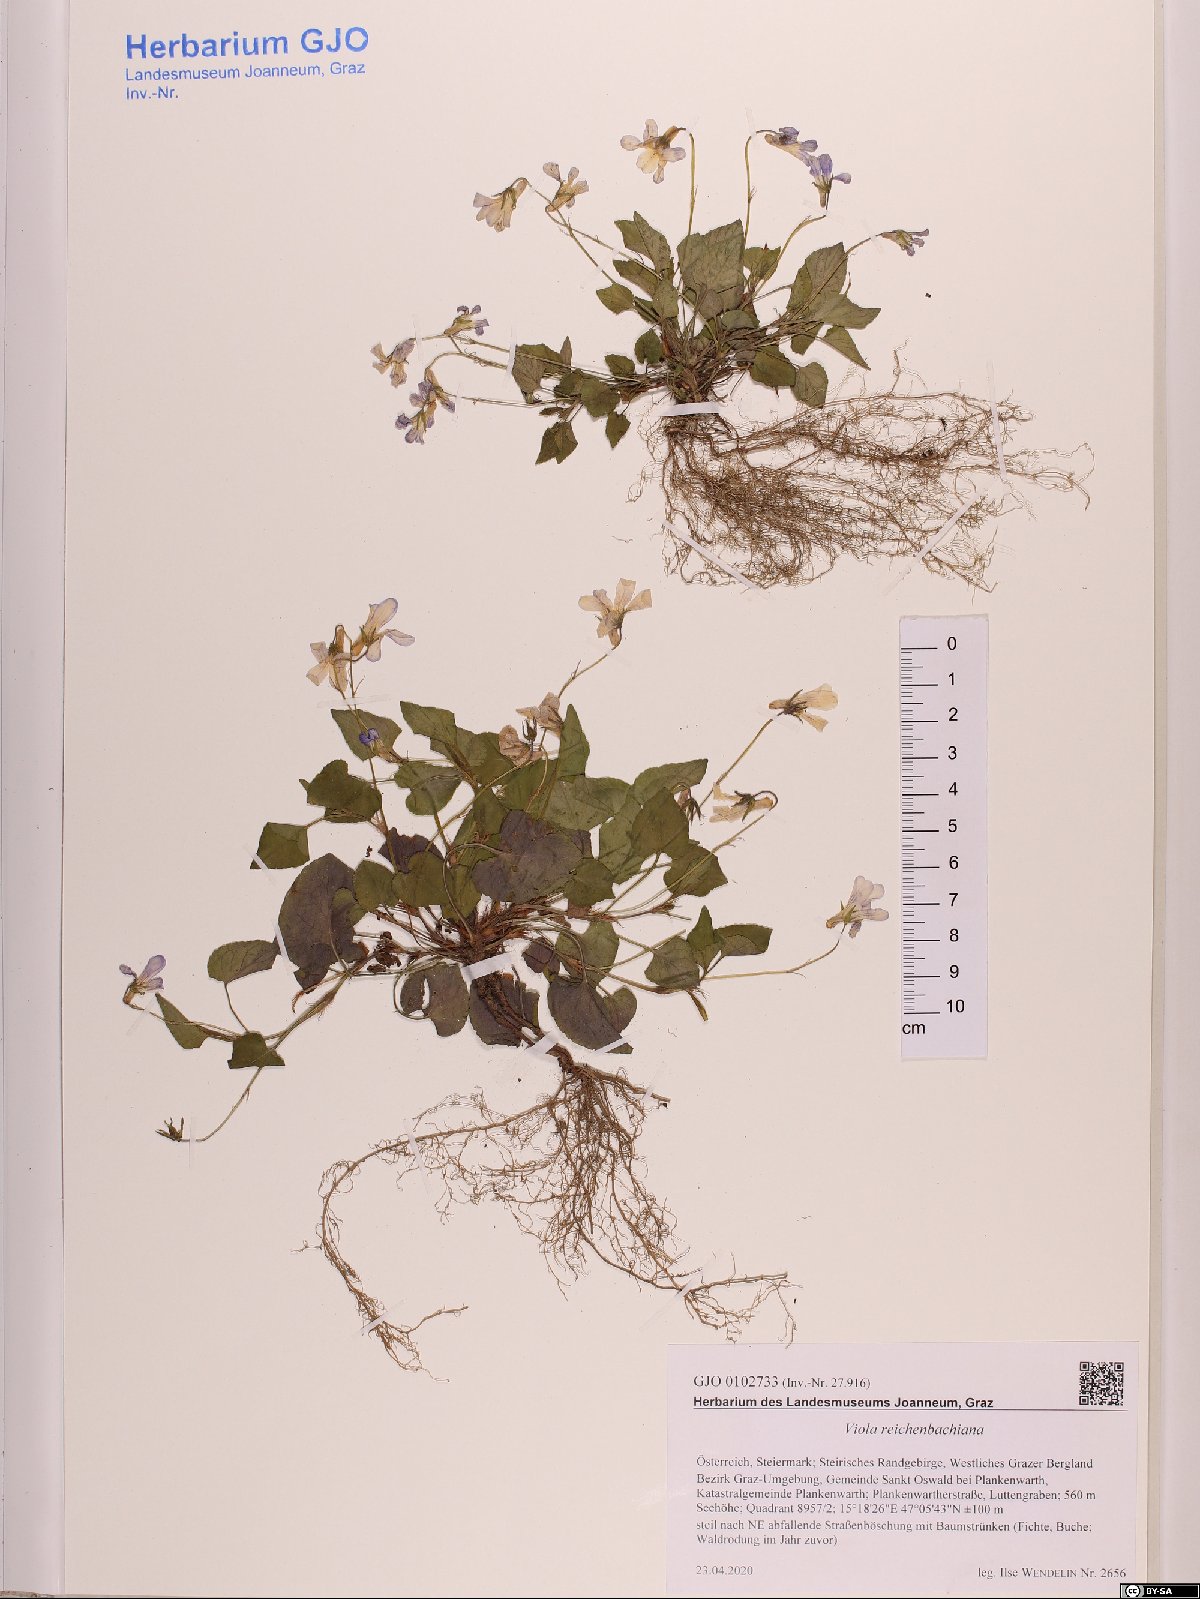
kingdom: Plantae
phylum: Tracheophyta
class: Magnoliopsida
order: Malpighiales
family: Violaceae
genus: Viola
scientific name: Viola reichenbachiana
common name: Early dog-violet
